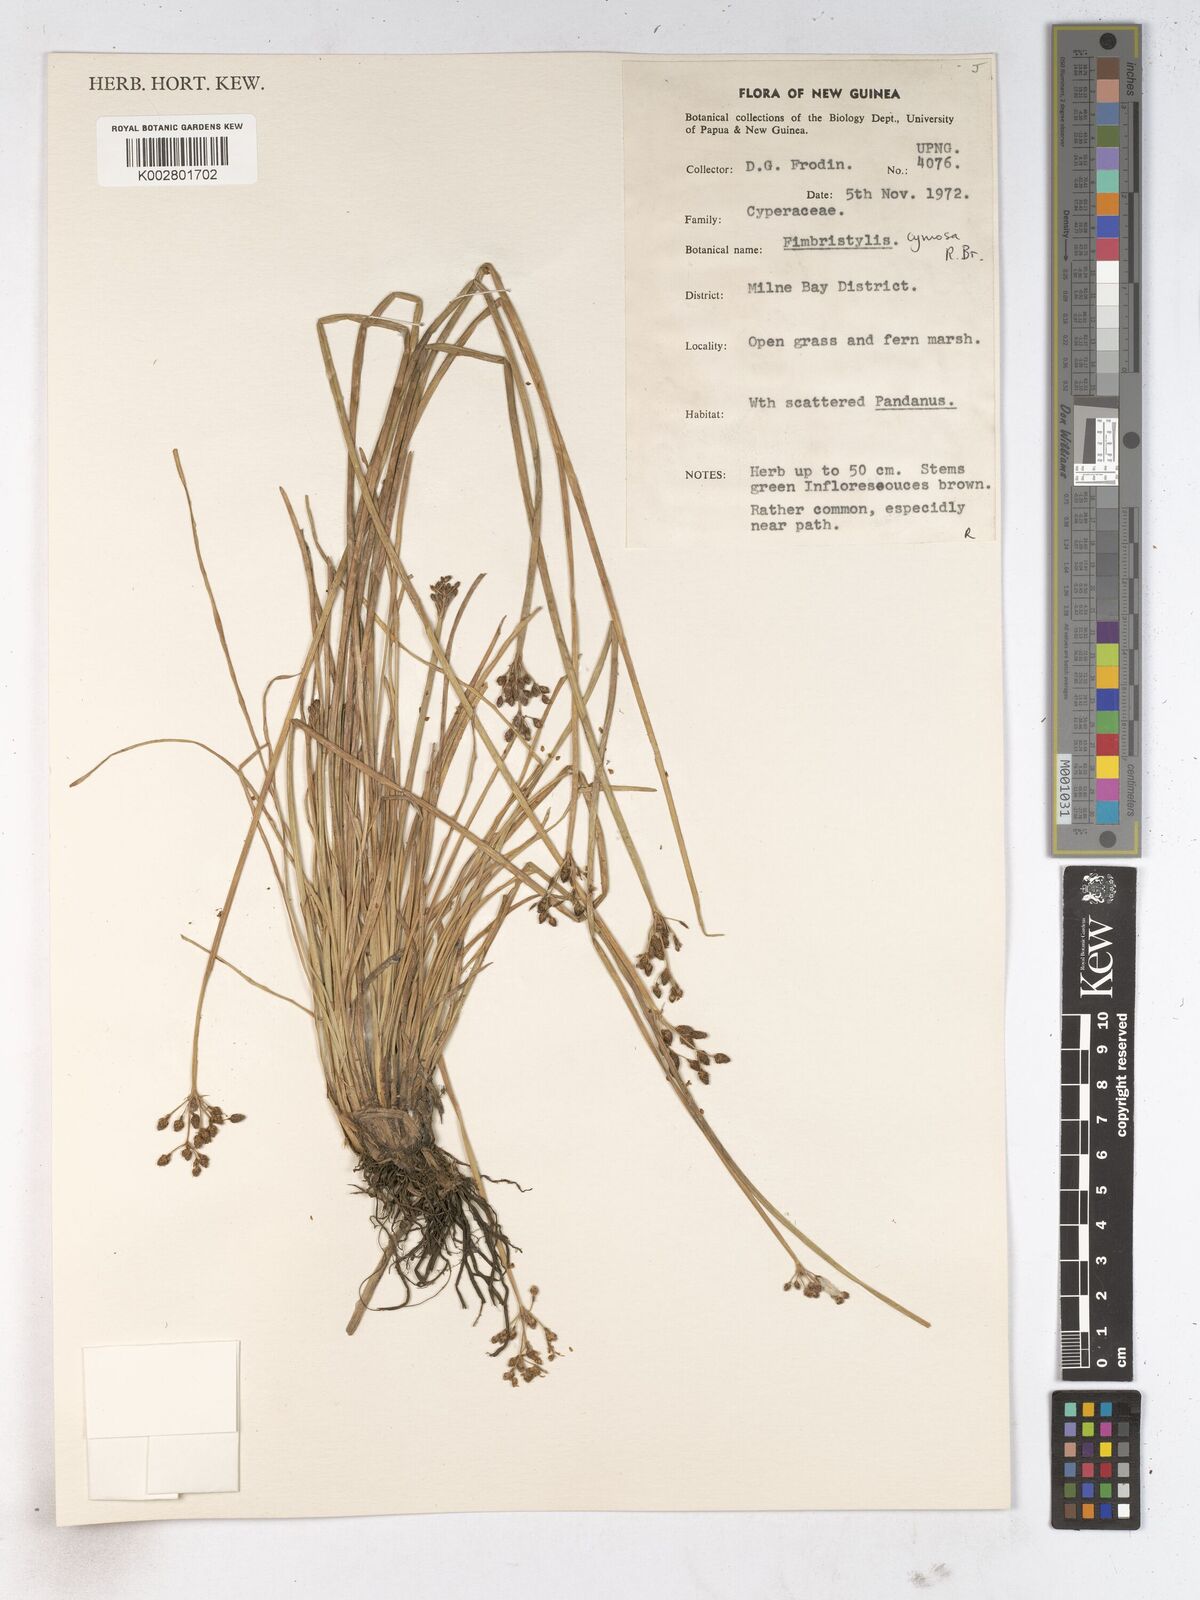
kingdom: Plantae
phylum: Tracheophyta
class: Liliopsida
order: Poales
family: Cyperaceae
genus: Fimbristylis
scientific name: Fimbristylis cymosa
